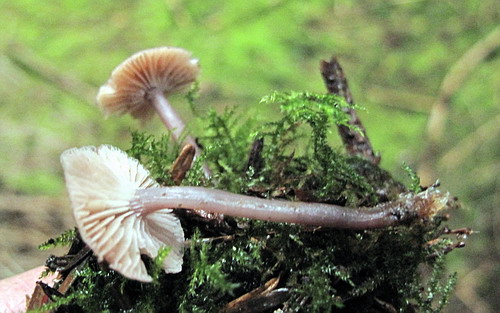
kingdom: Fungi
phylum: Basidiomycota
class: Agaricomycetes
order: Agaricales
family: Tricholomataceae
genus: Gamundia
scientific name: Gamundia striatula
